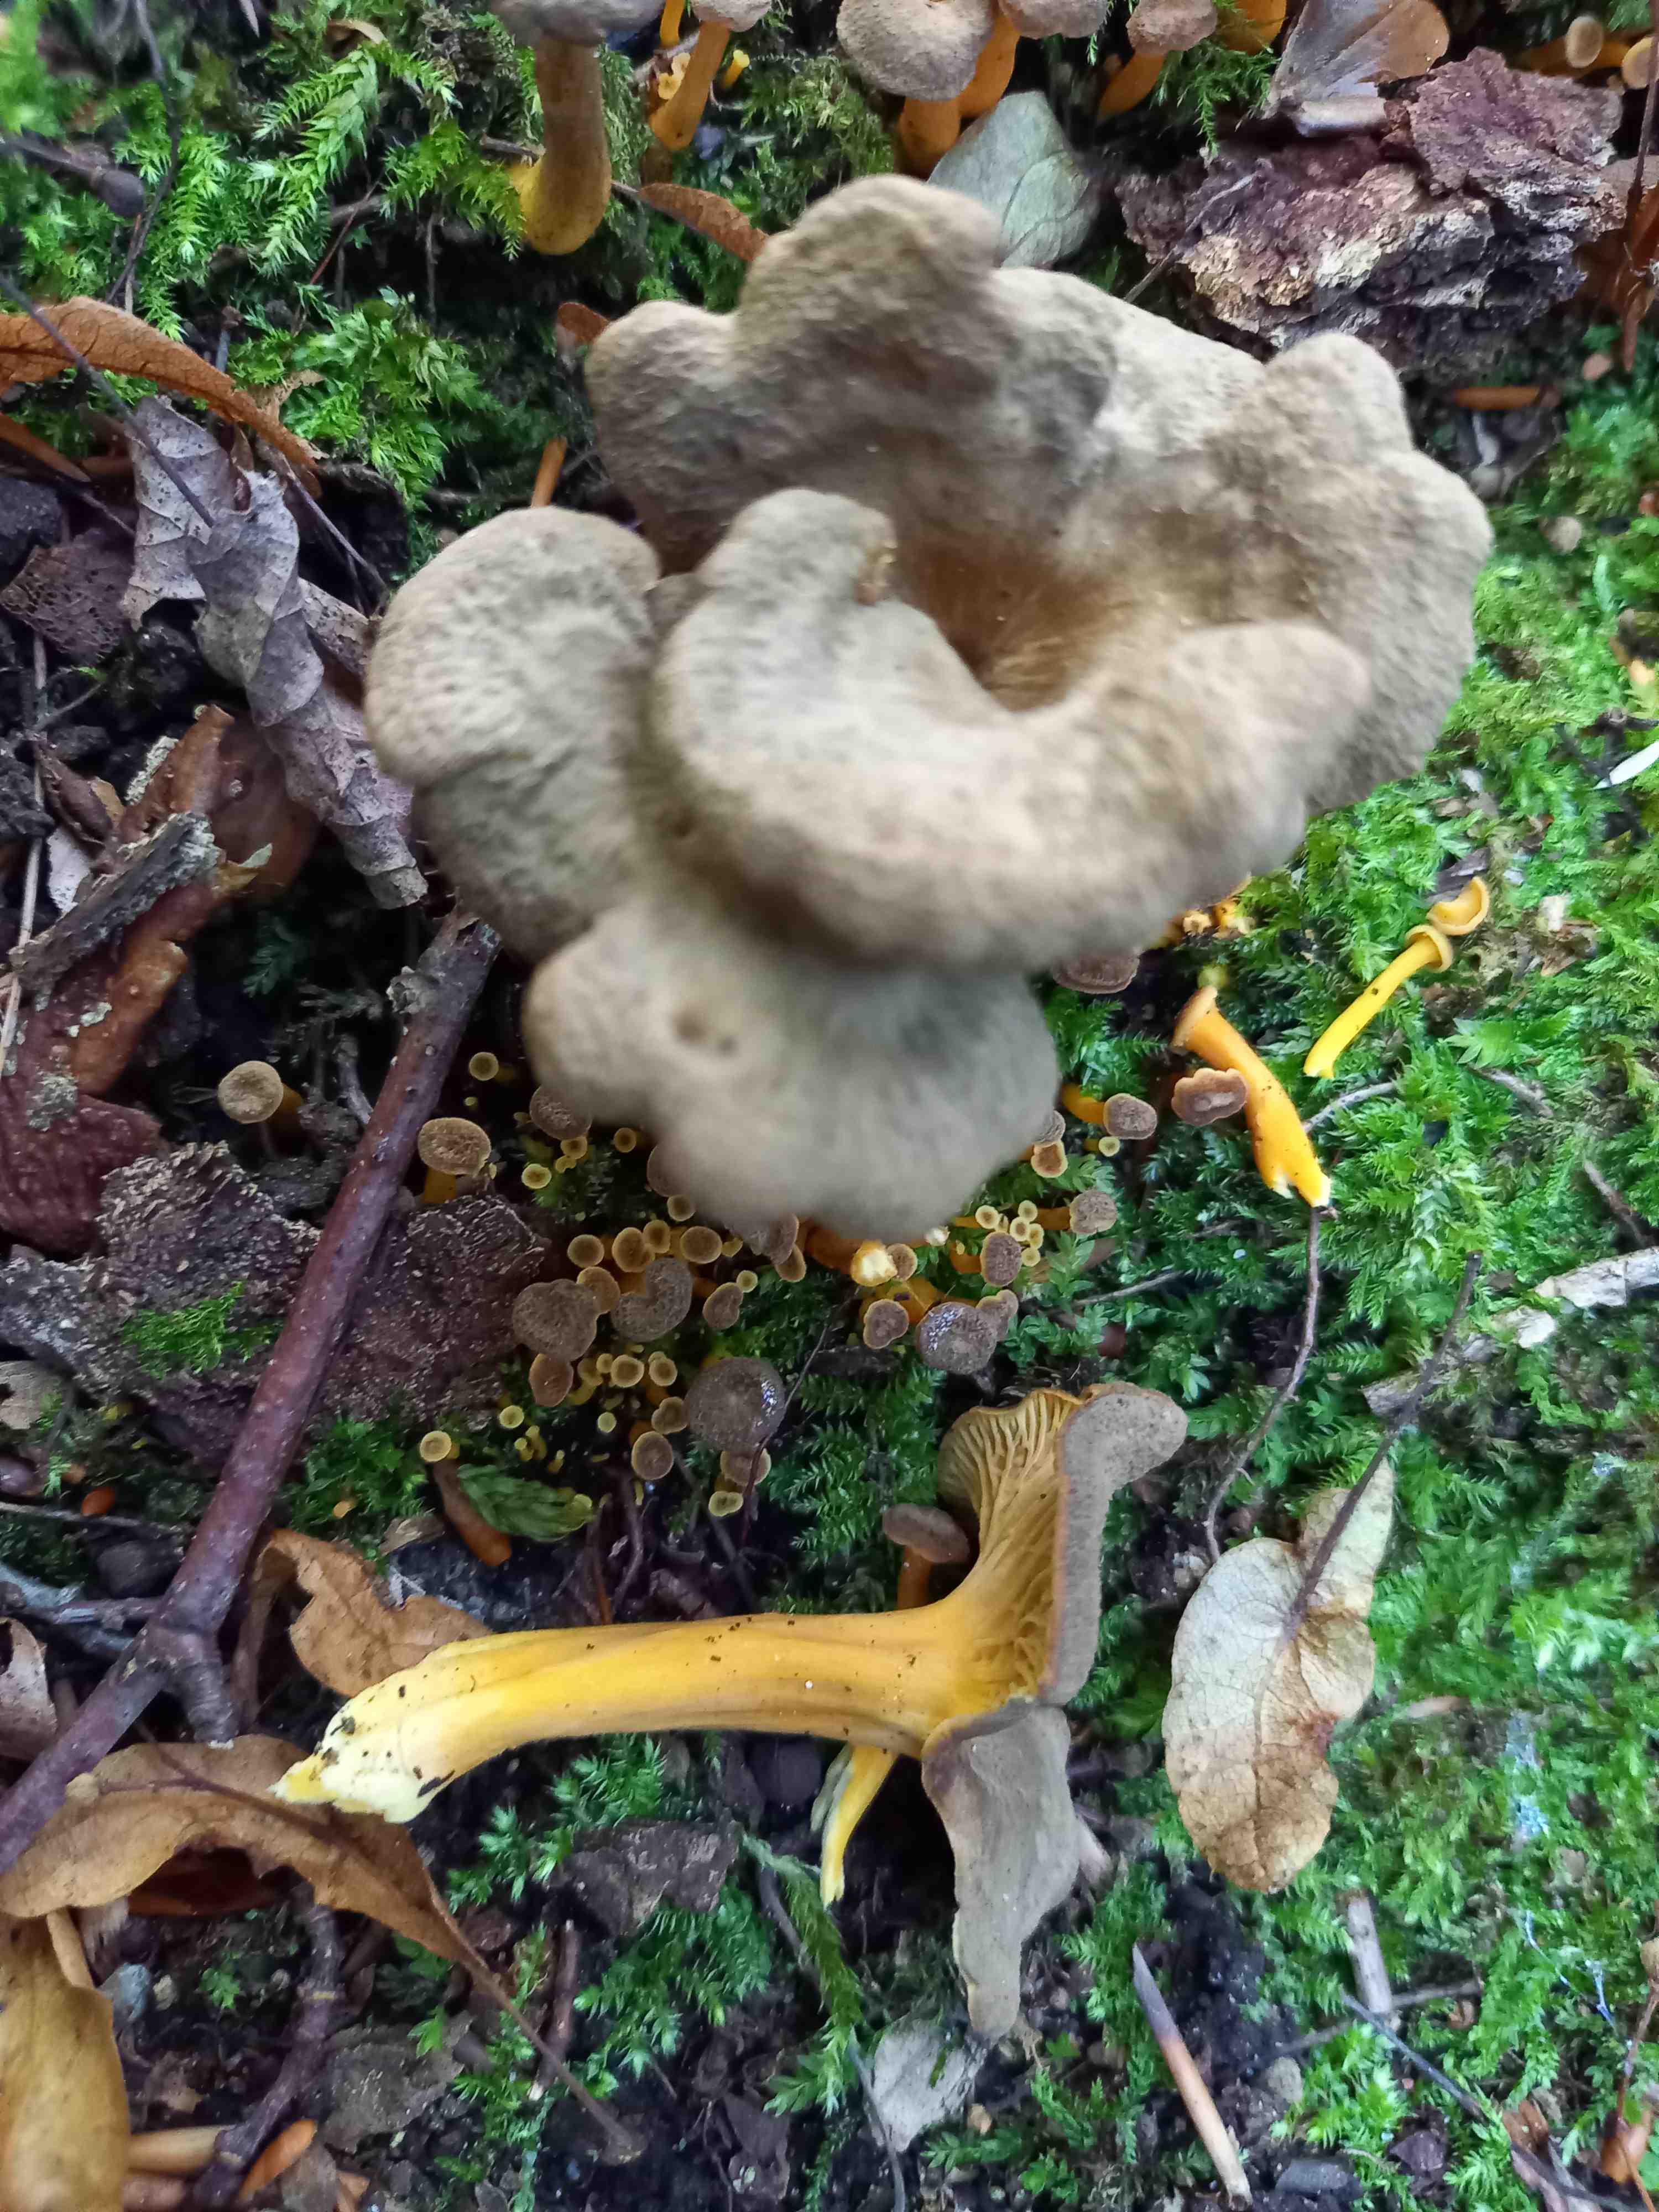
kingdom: Fungi
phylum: Basidiomycota
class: Agaricomycetes
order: Cantharellales
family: Hydnaceae
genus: Craterellus
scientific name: Craterellus tubaeformis
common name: tragt-kantarel
